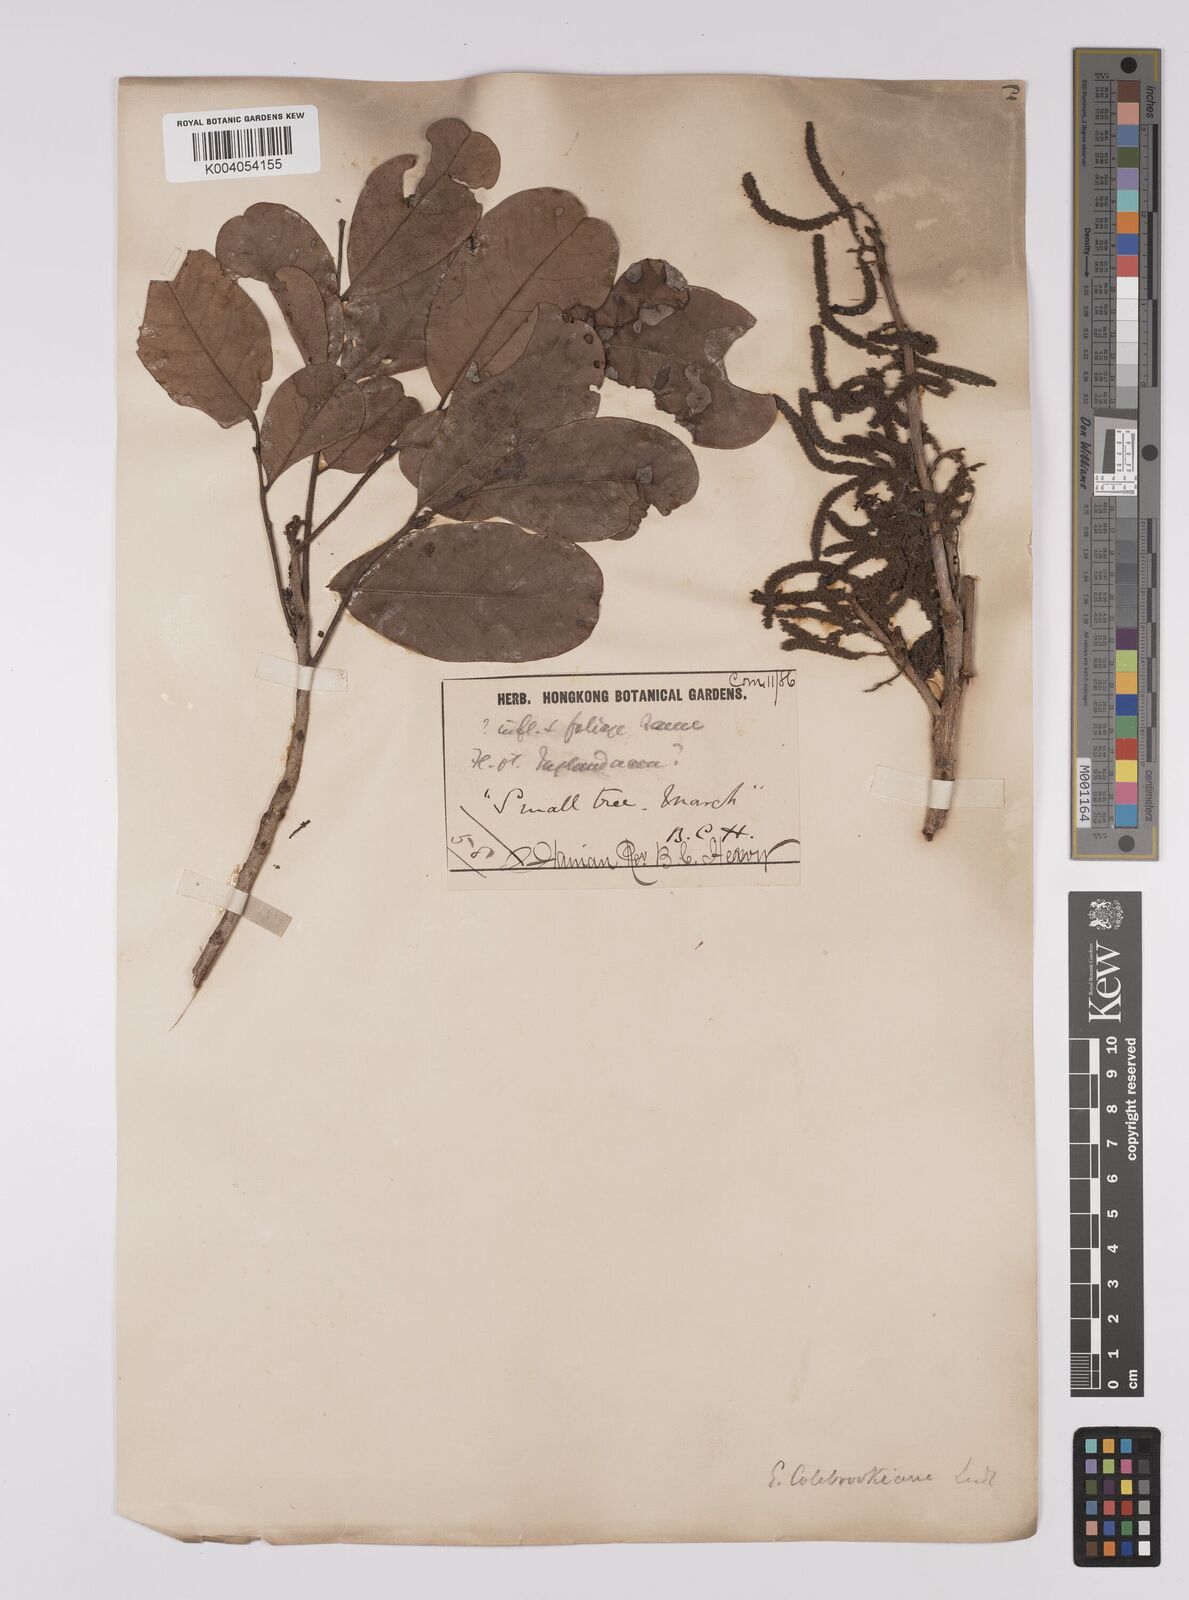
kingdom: Plantae
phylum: Tracheophyta
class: Magnoliopsida
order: Fagales
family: Juglandaceae
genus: Engelhardia
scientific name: Engelhardia spicata
